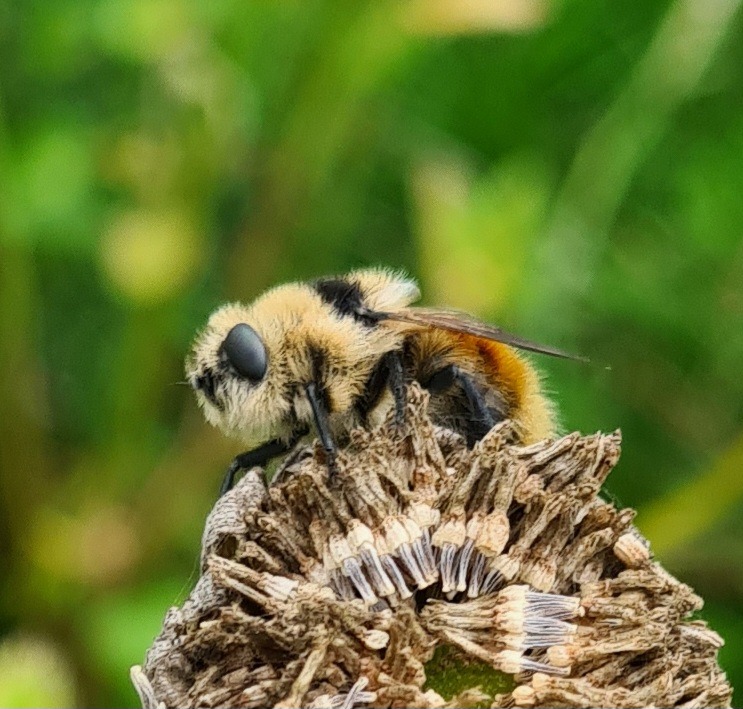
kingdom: Animalia
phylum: Arthropoda
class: Insecta
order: Diptera
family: Oestridae
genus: Cephenemyia
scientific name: Cephenemyia stimulator
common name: Rådyrets svælgbremse
